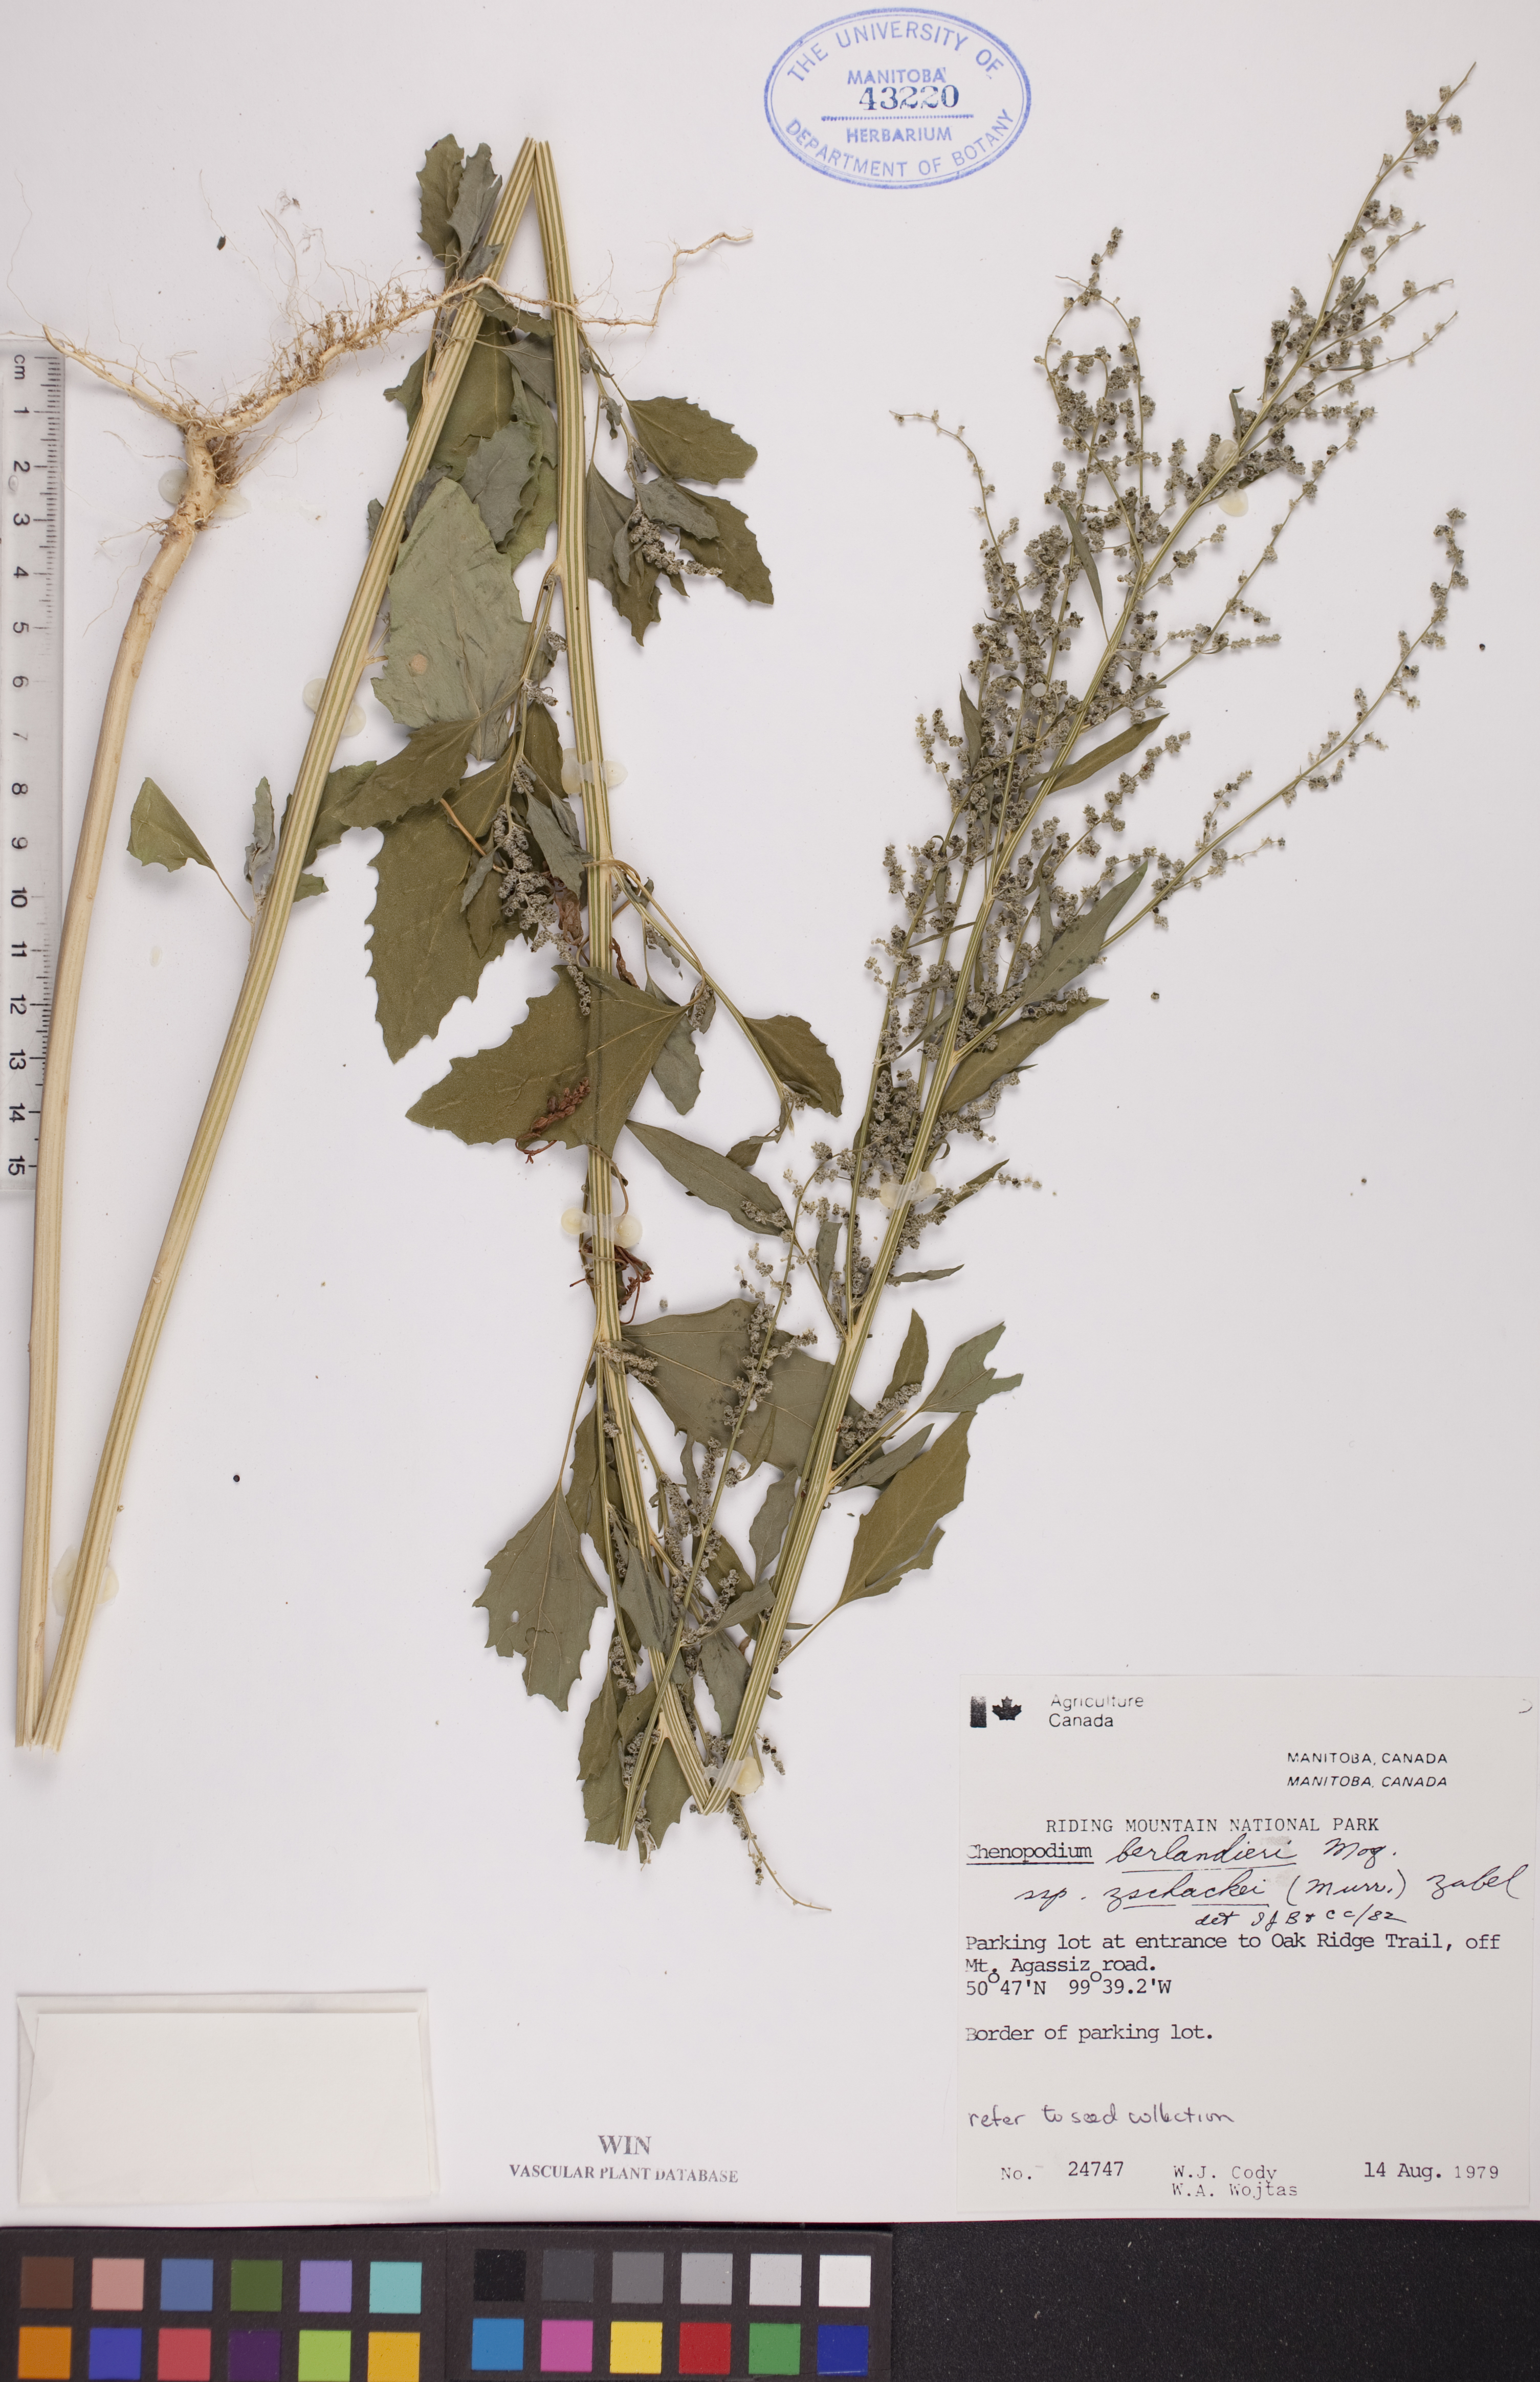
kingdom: Plantae
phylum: Tracheophyta
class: Magnoliopsida
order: Caryophyllales
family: Amaranthaceae
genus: Chenopodium
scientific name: Chenopodium berlandieri
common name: Pit-seed goosefoot
